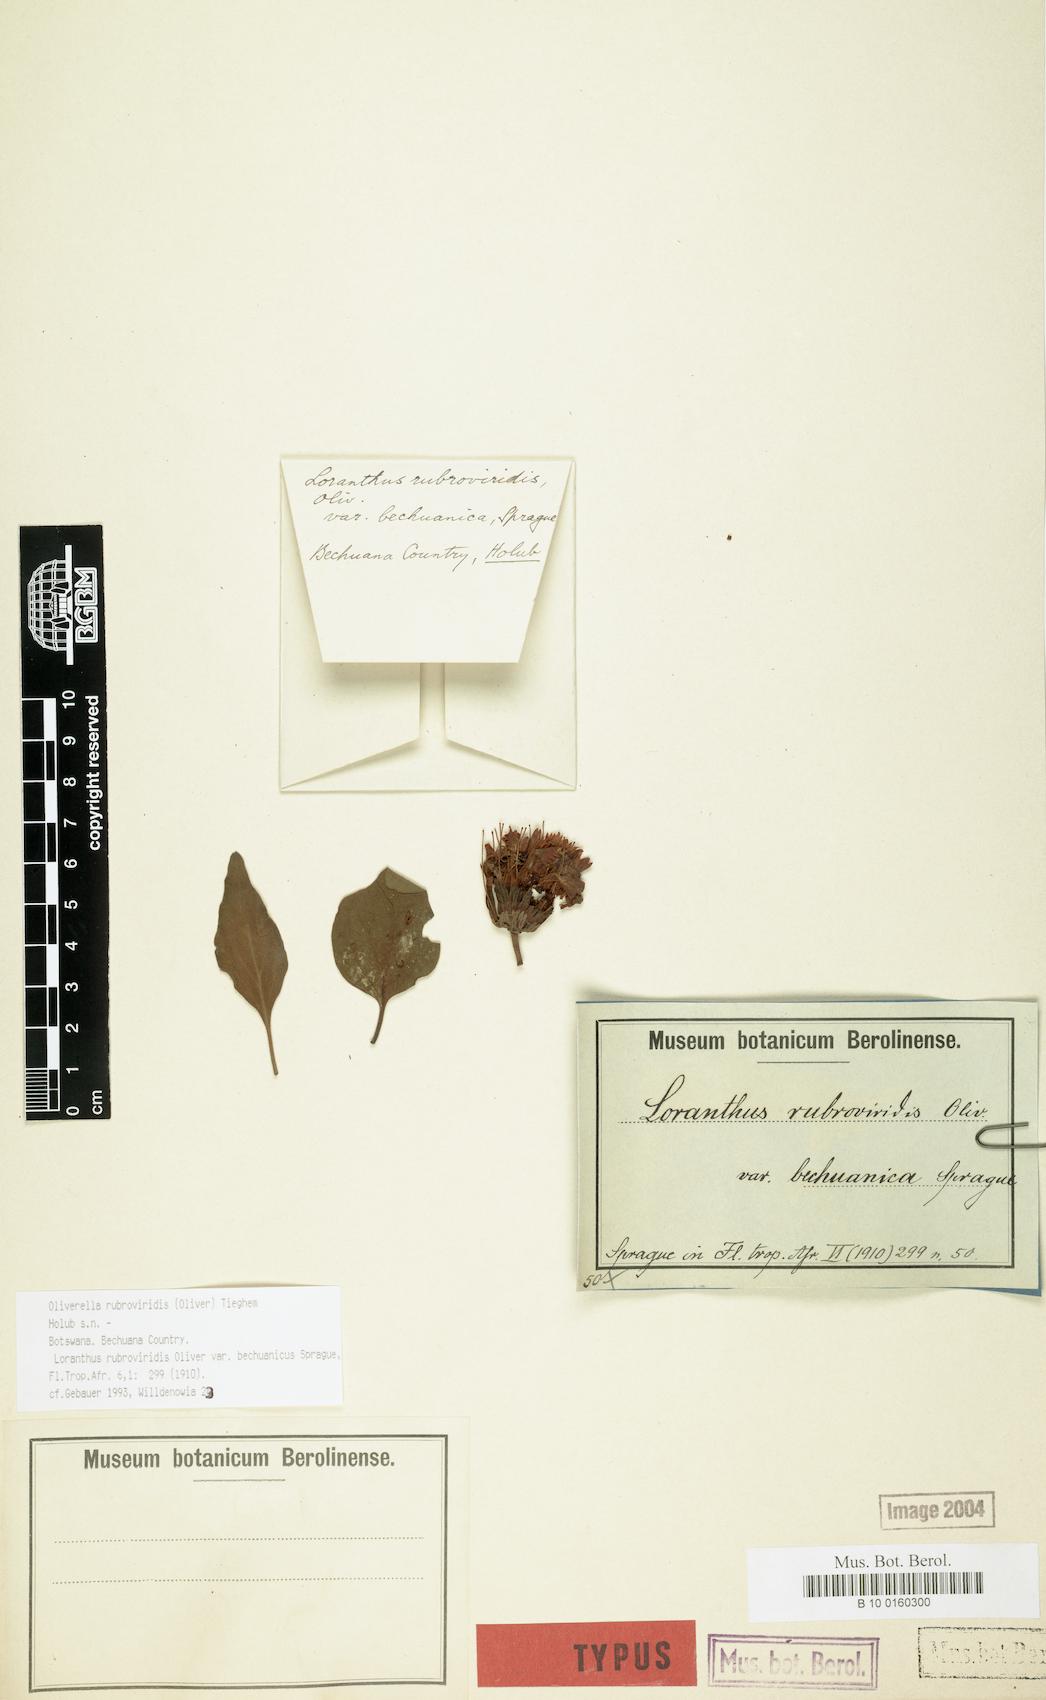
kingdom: Plantae
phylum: Tracheophyta
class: Magnoliopsida
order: Santalales
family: Loranthaceae
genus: Oliverella
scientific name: Oliverella rubroviridis
